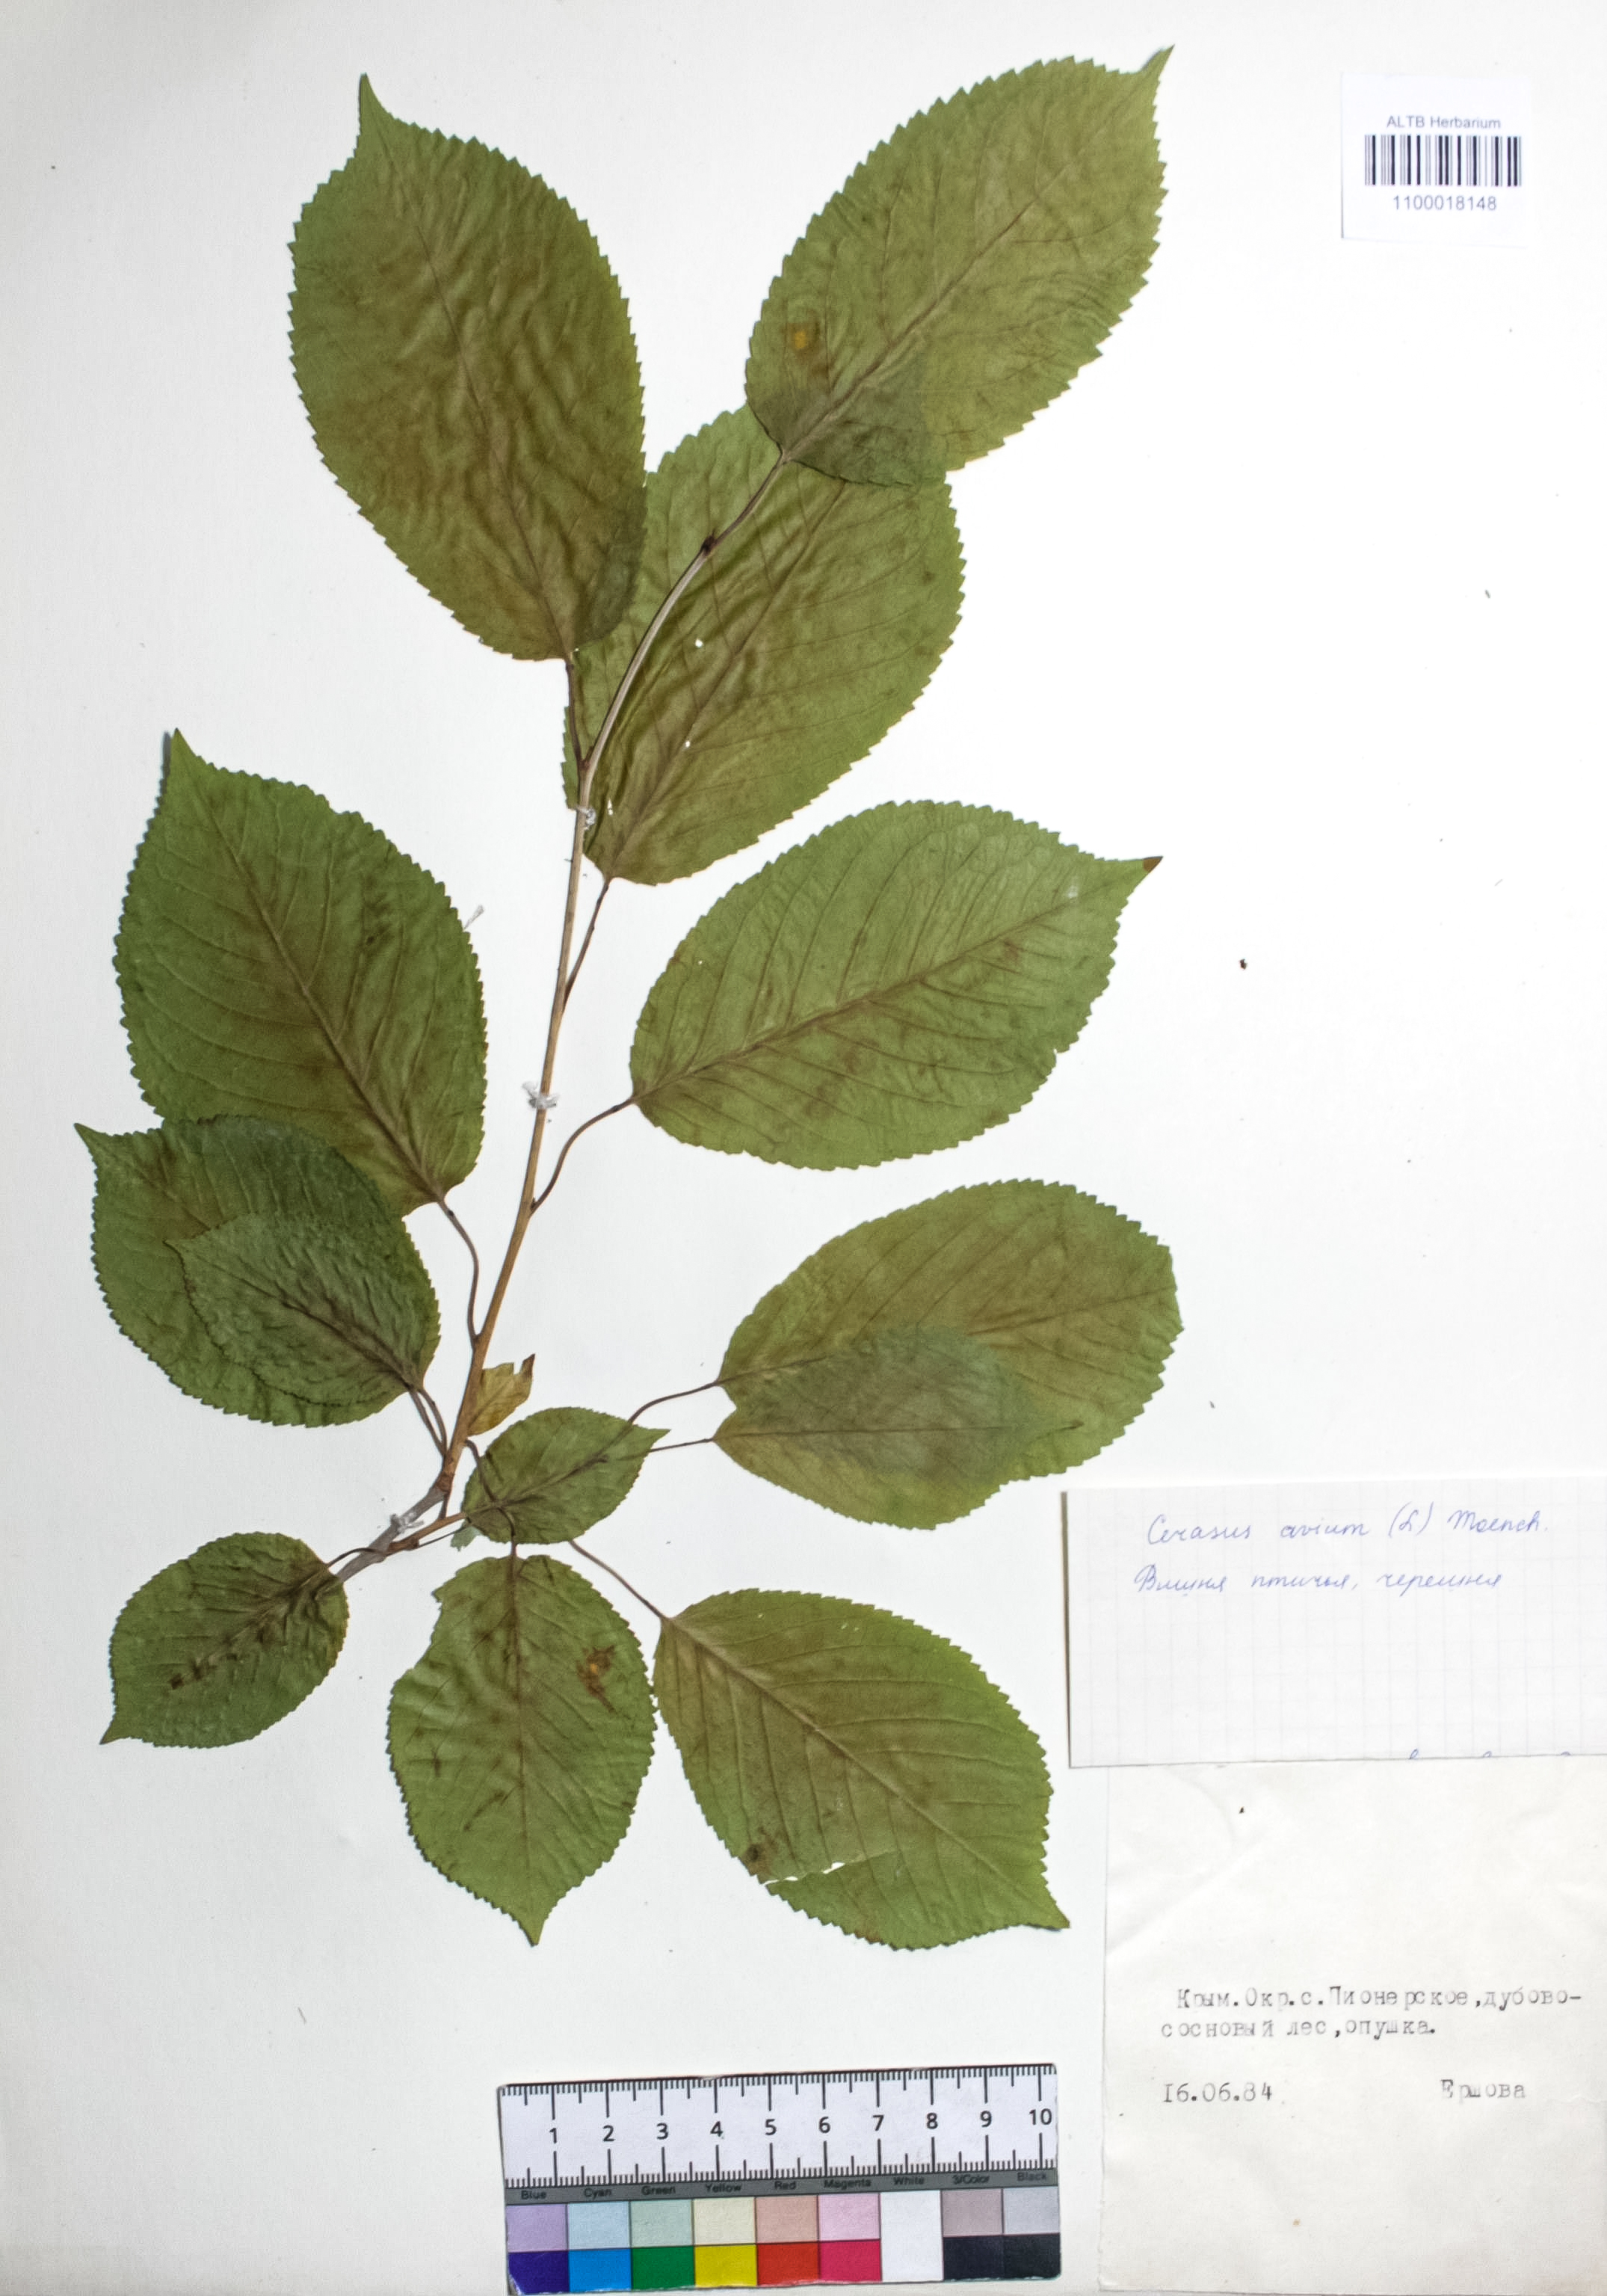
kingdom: Plantae
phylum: Tracheophyta
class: Magnoliopsida
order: Rosales
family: Rosaceae
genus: Prunus
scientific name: Prunus avium
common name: Sweet cherry
